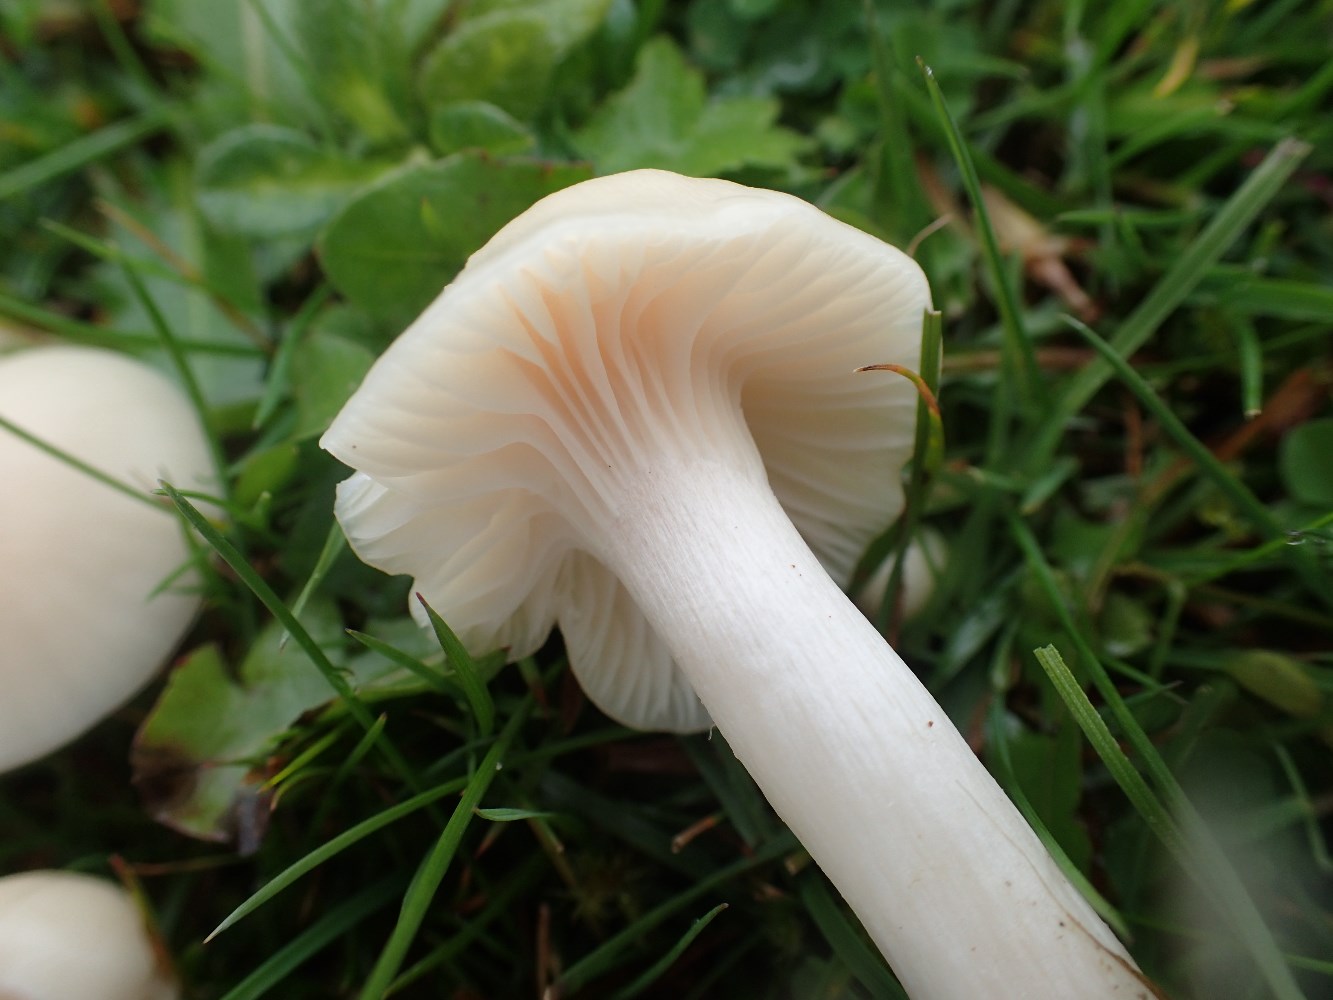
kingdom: Fungi
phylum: Basidiomycota
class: Agaricomycetes
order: Agaricales
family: Hygrophoraceae
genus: Cuphophyllus
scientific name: Cuphophyllus virgineus
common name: snehvid vokshat
